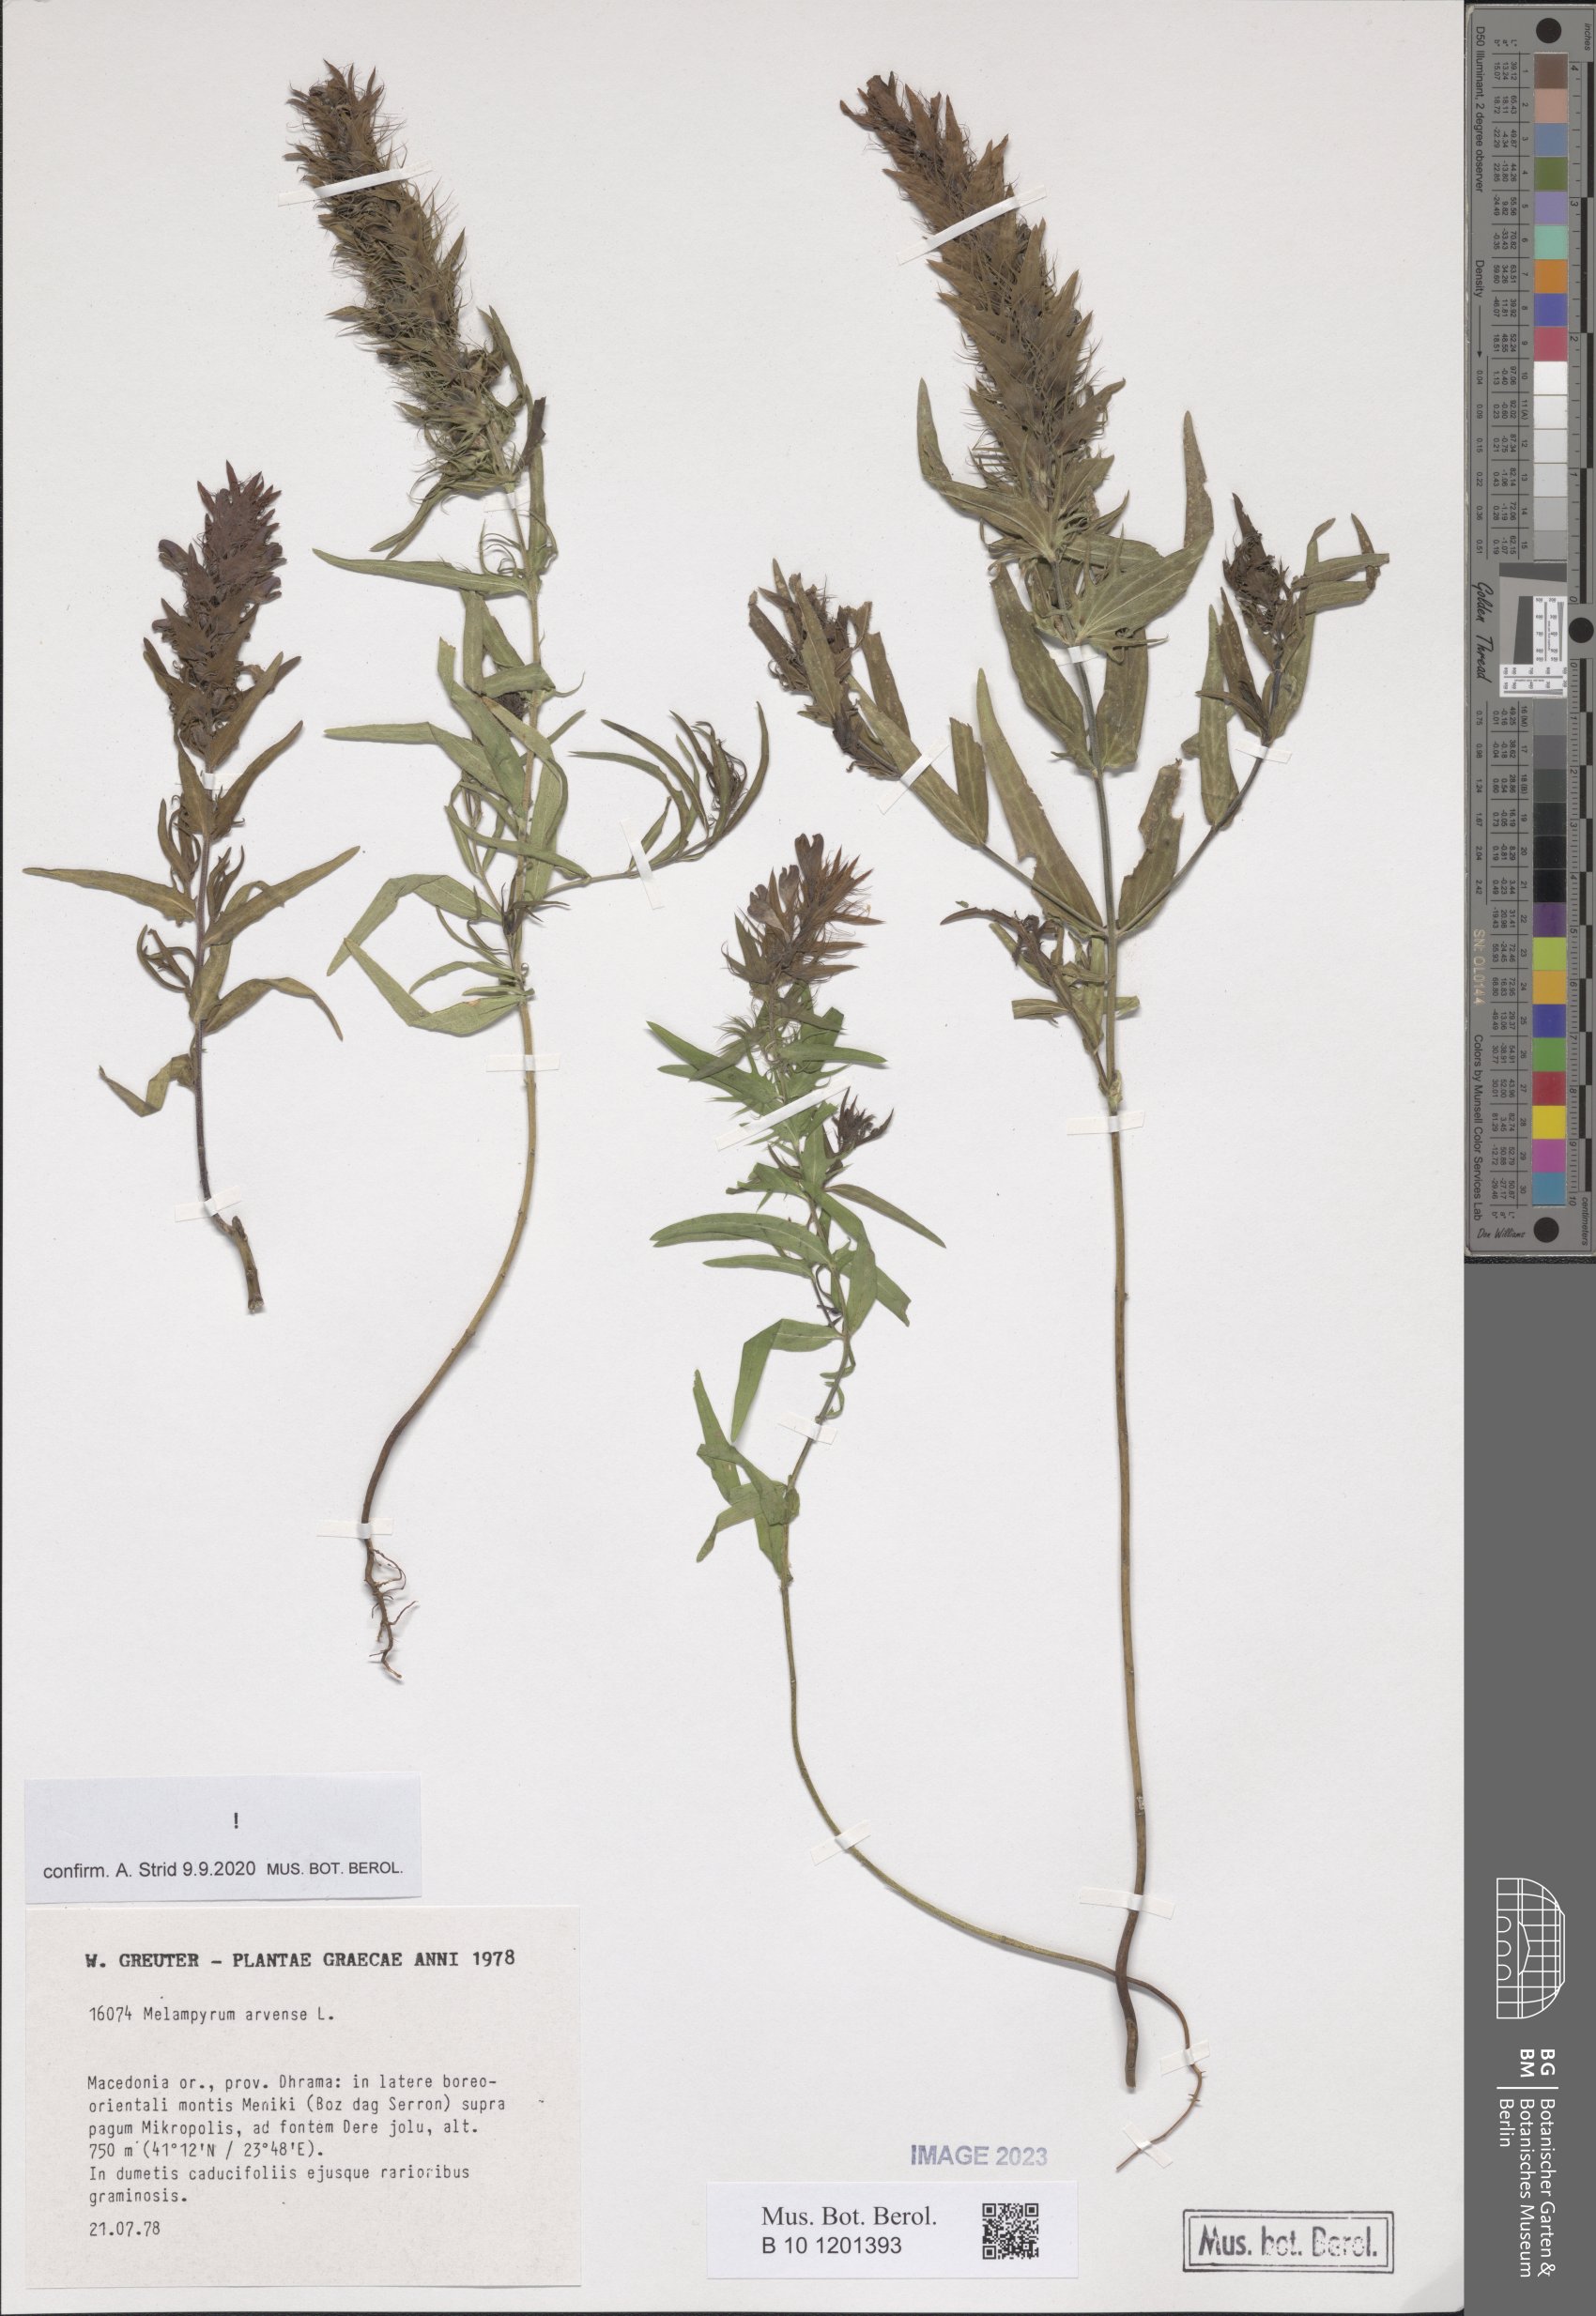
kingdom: Plantae
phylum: Tracheophyta
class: Magnoliopsida
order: Lamiales
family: Orobanchaceae
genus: Melampyrum
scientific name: Melampyrum arvense
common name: Field cow-wheat
